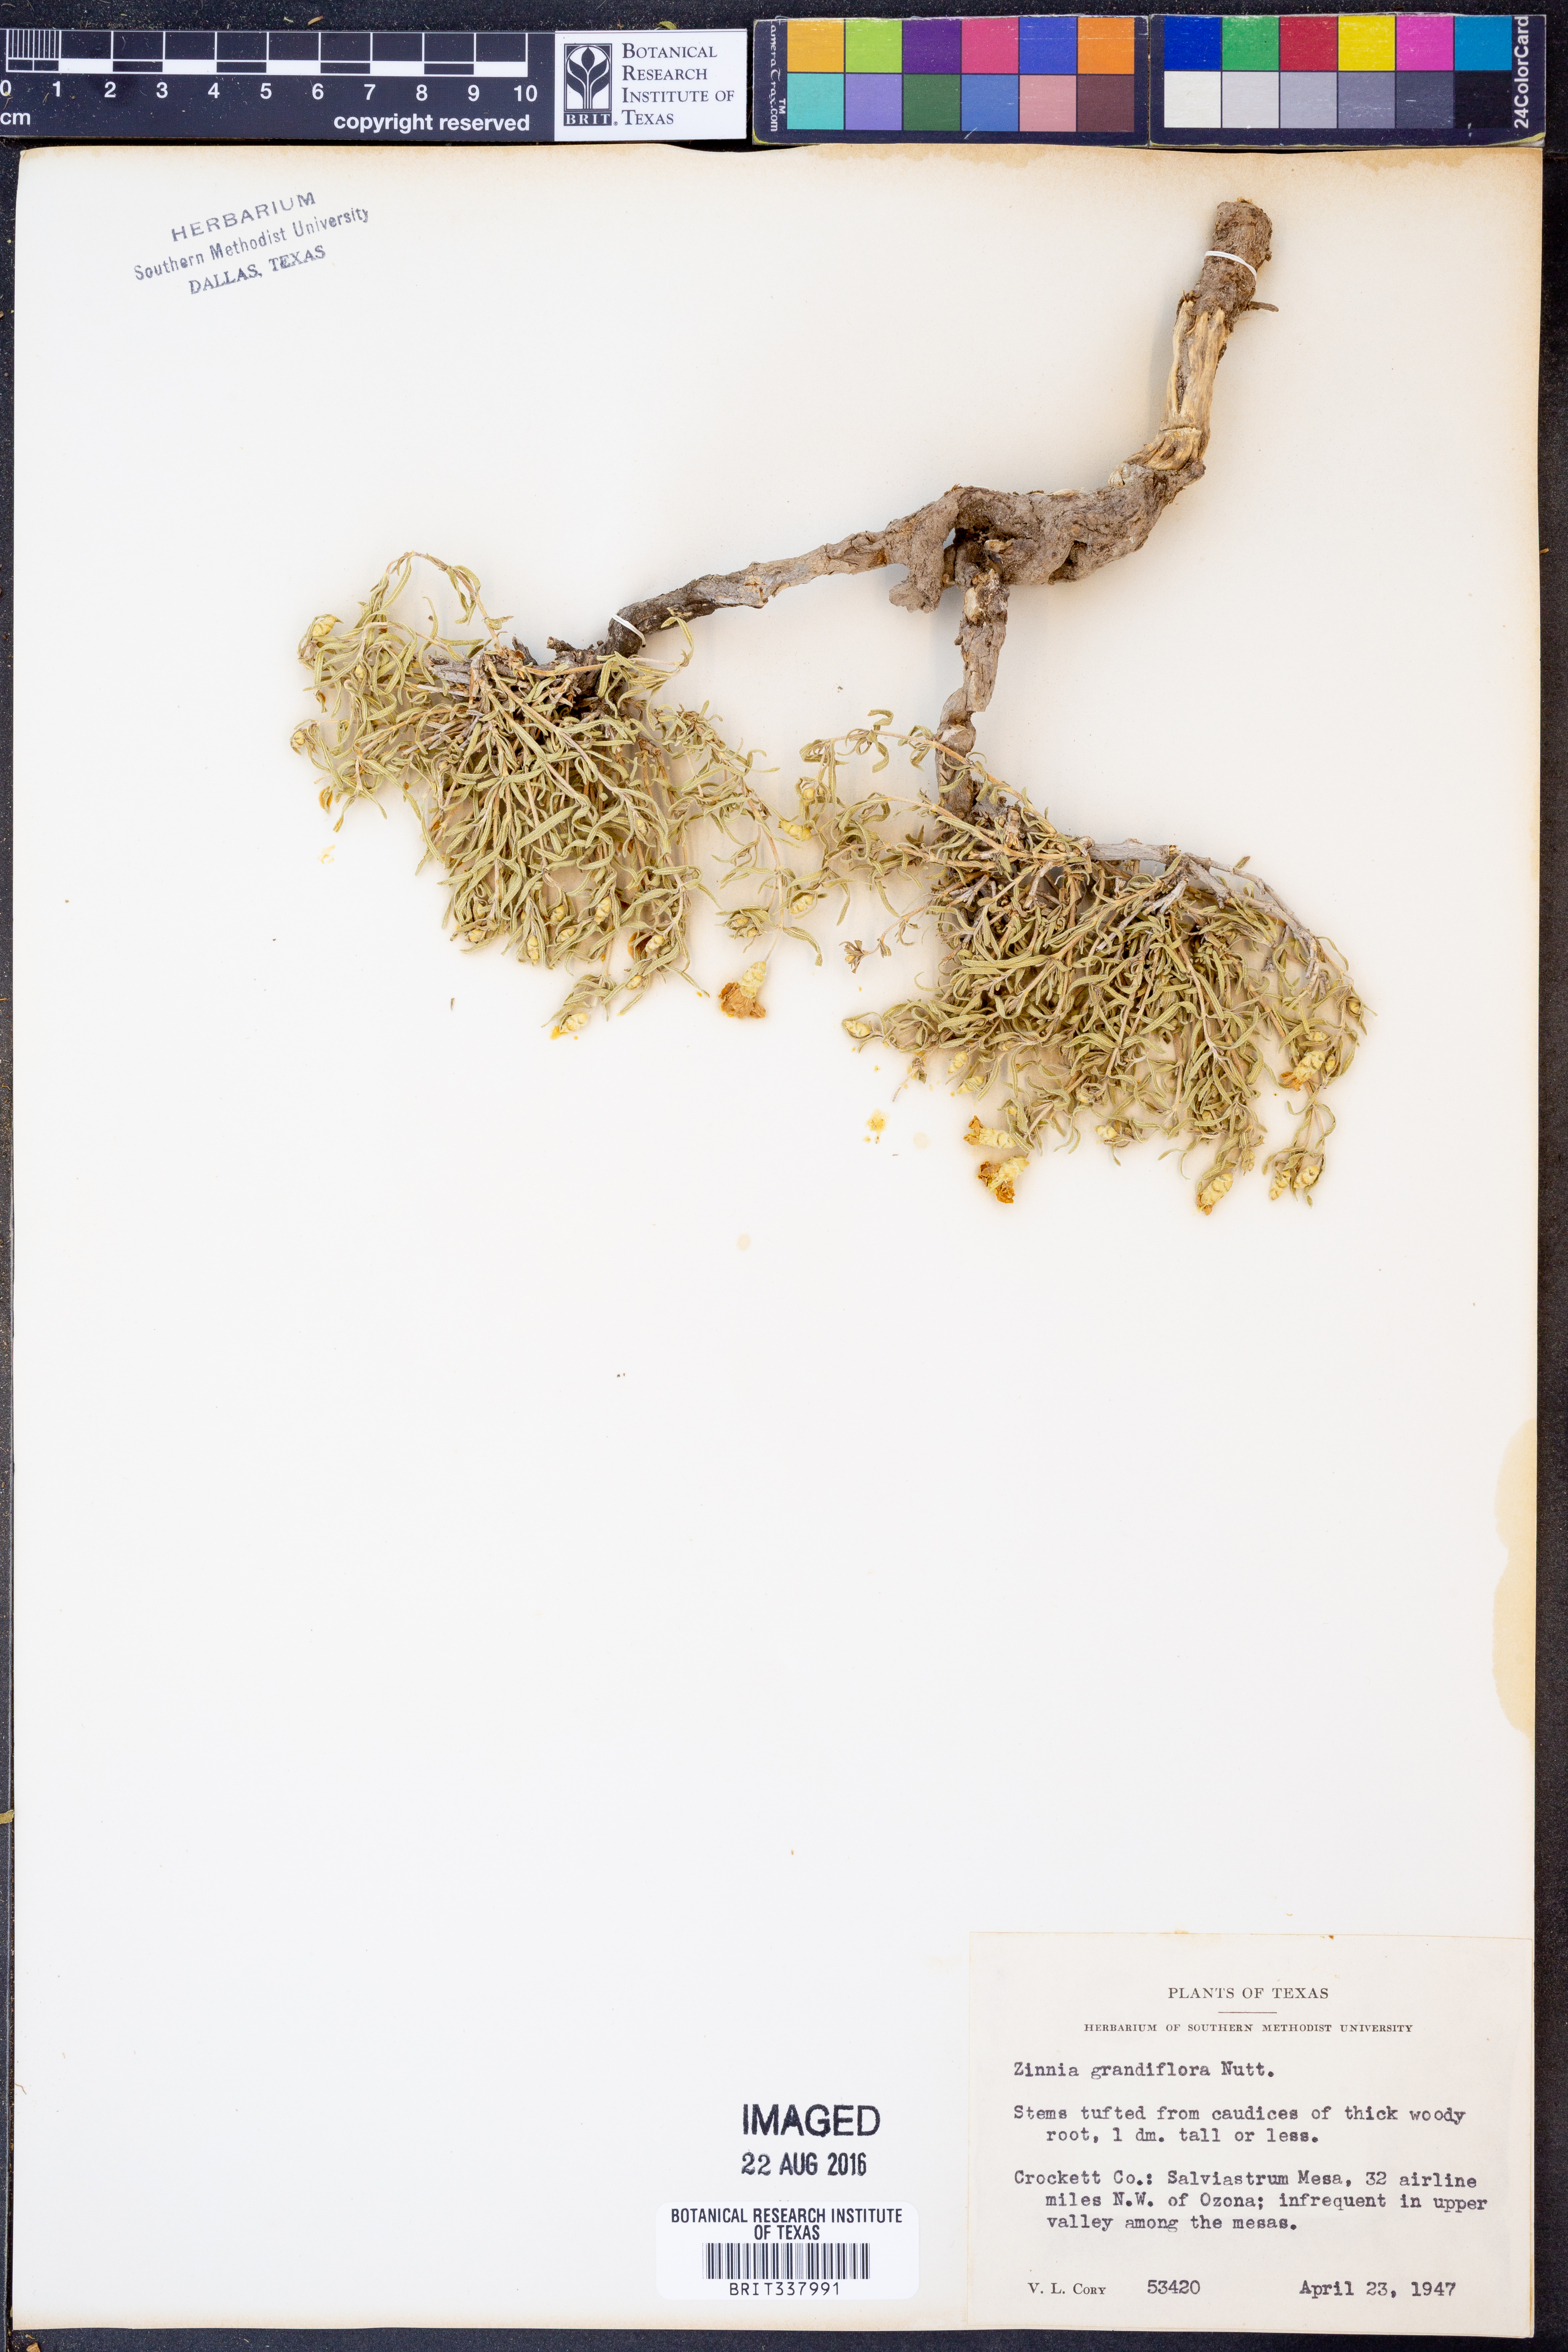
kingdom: Plantae
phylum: Tracheophyta
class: Magnoliopsida
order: Asterales
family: Asteraceae
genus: Zinnia
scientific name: Zinnia grandiflora
